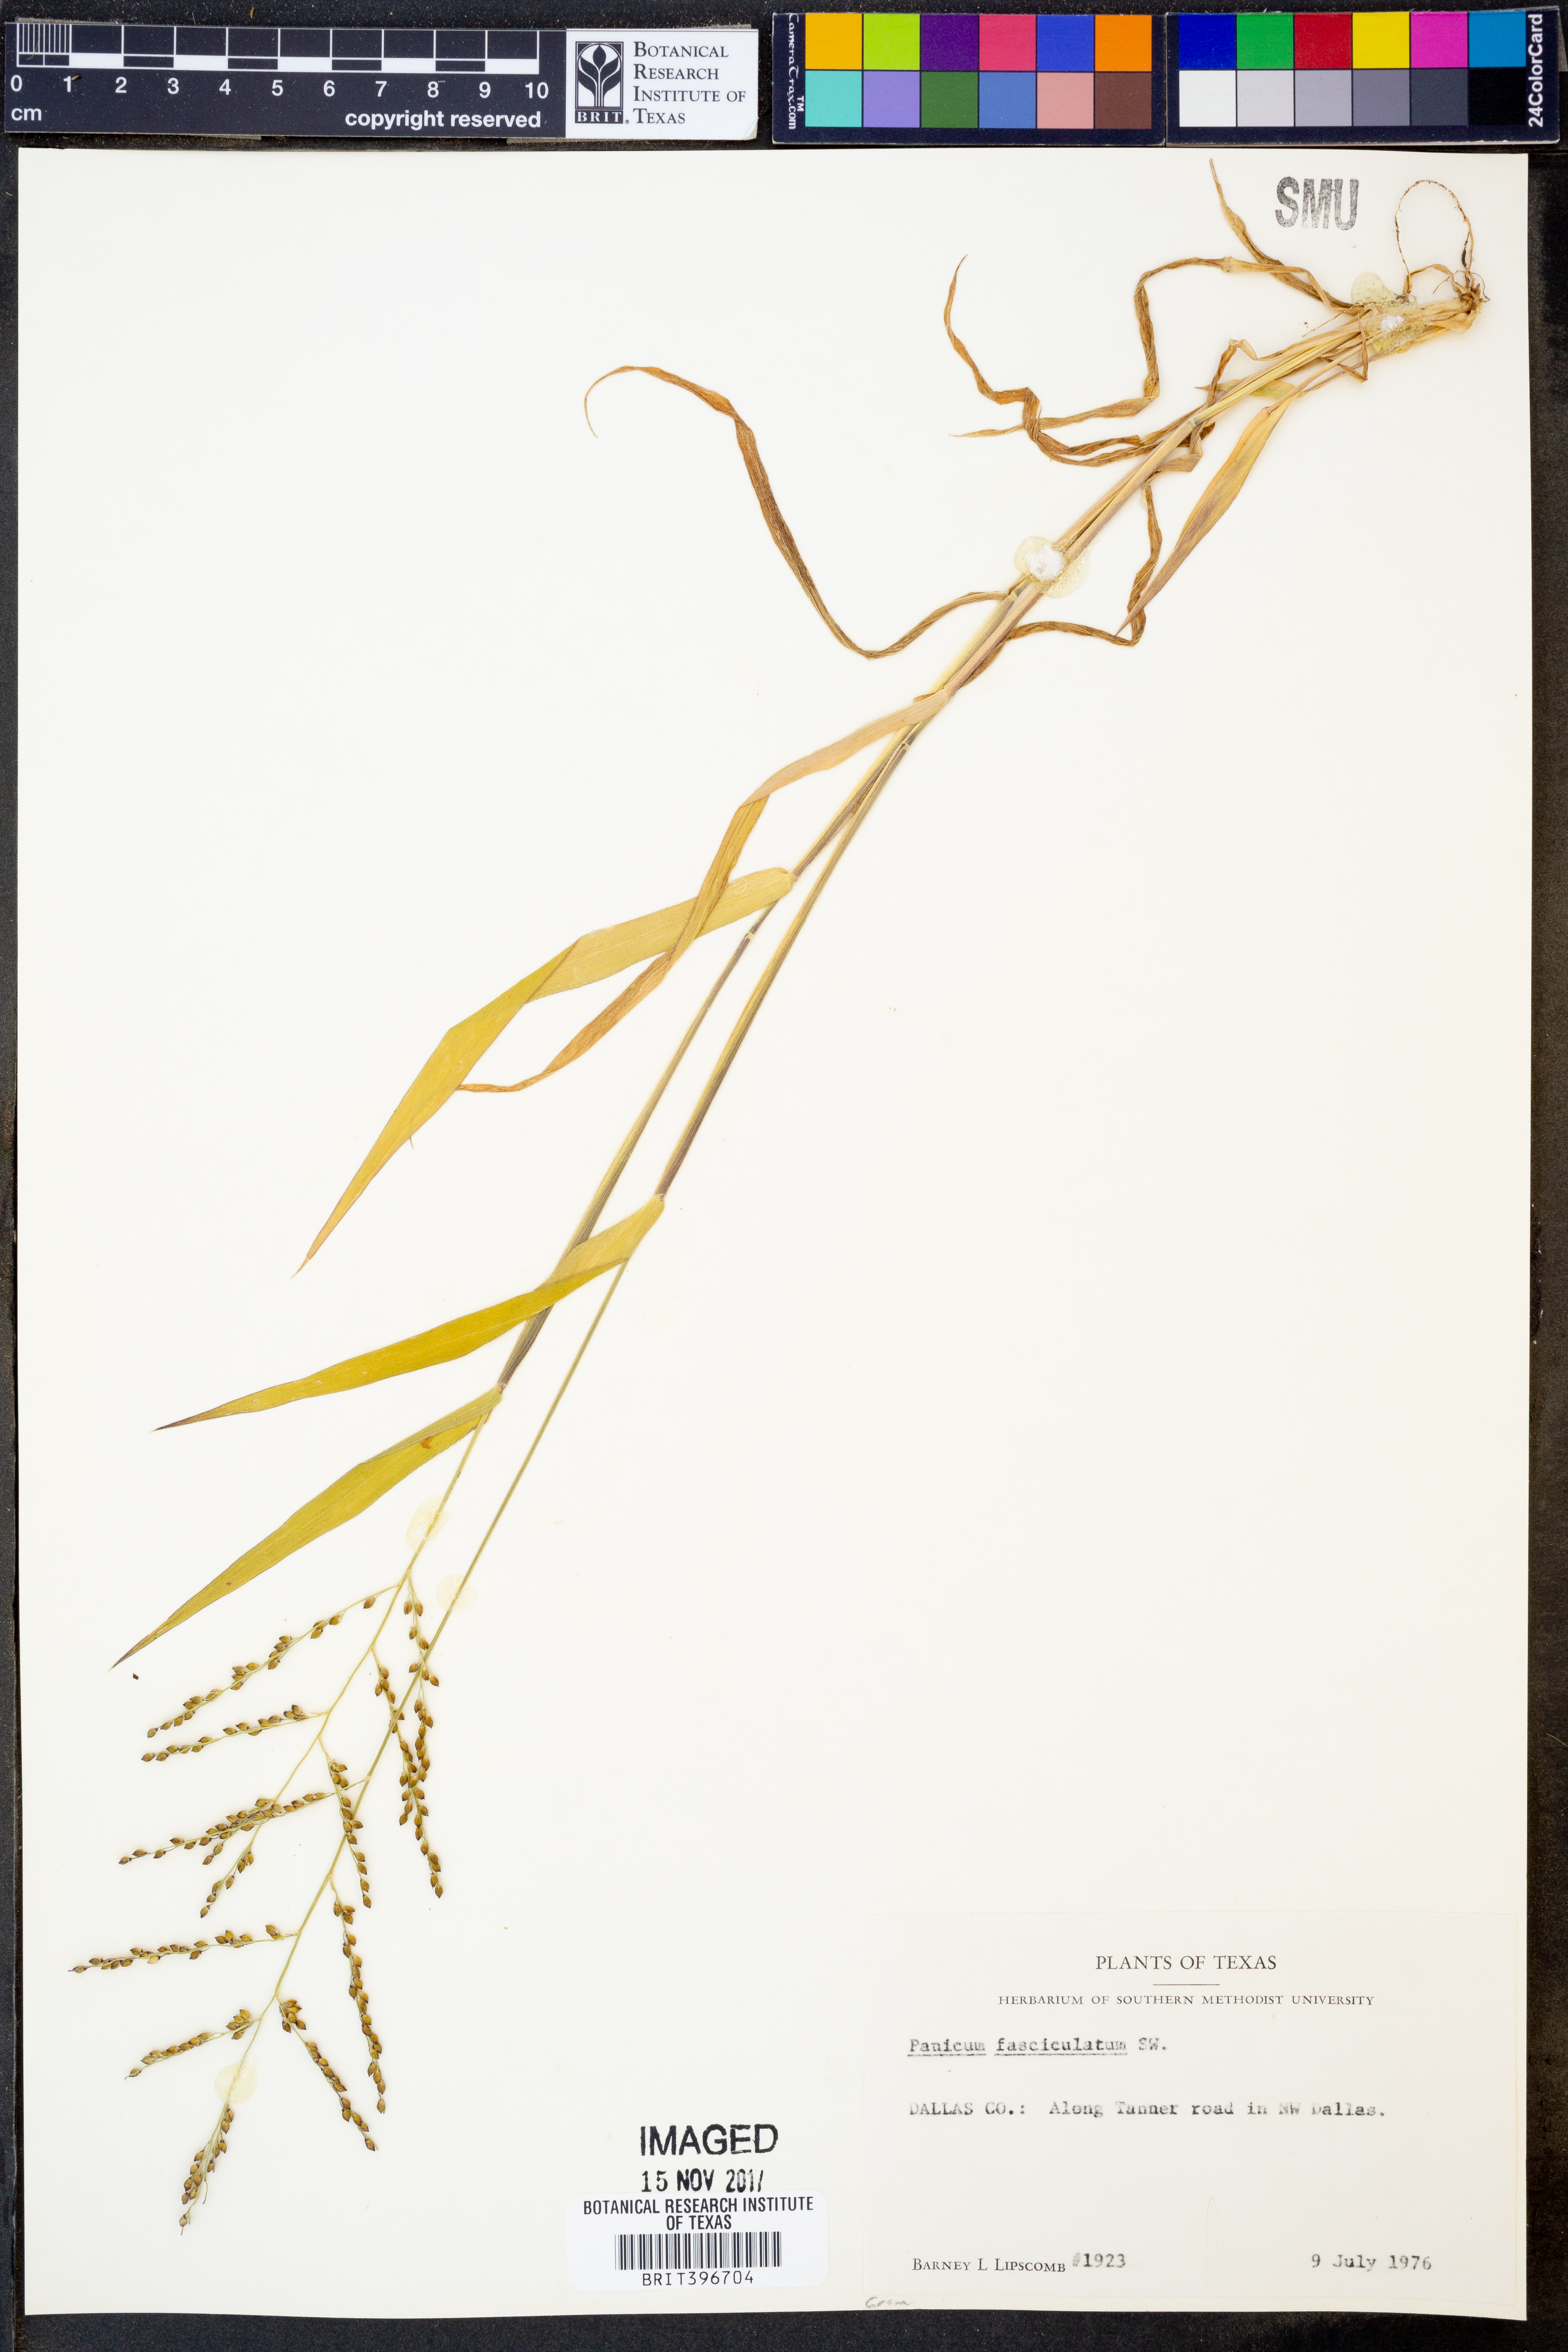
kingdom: Plantae
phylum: Tracheophyta
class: Liliopsida
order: Poales
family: Poaceae
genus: Urochloa
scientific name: Urochloa fusca
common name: Browntop signal grass
